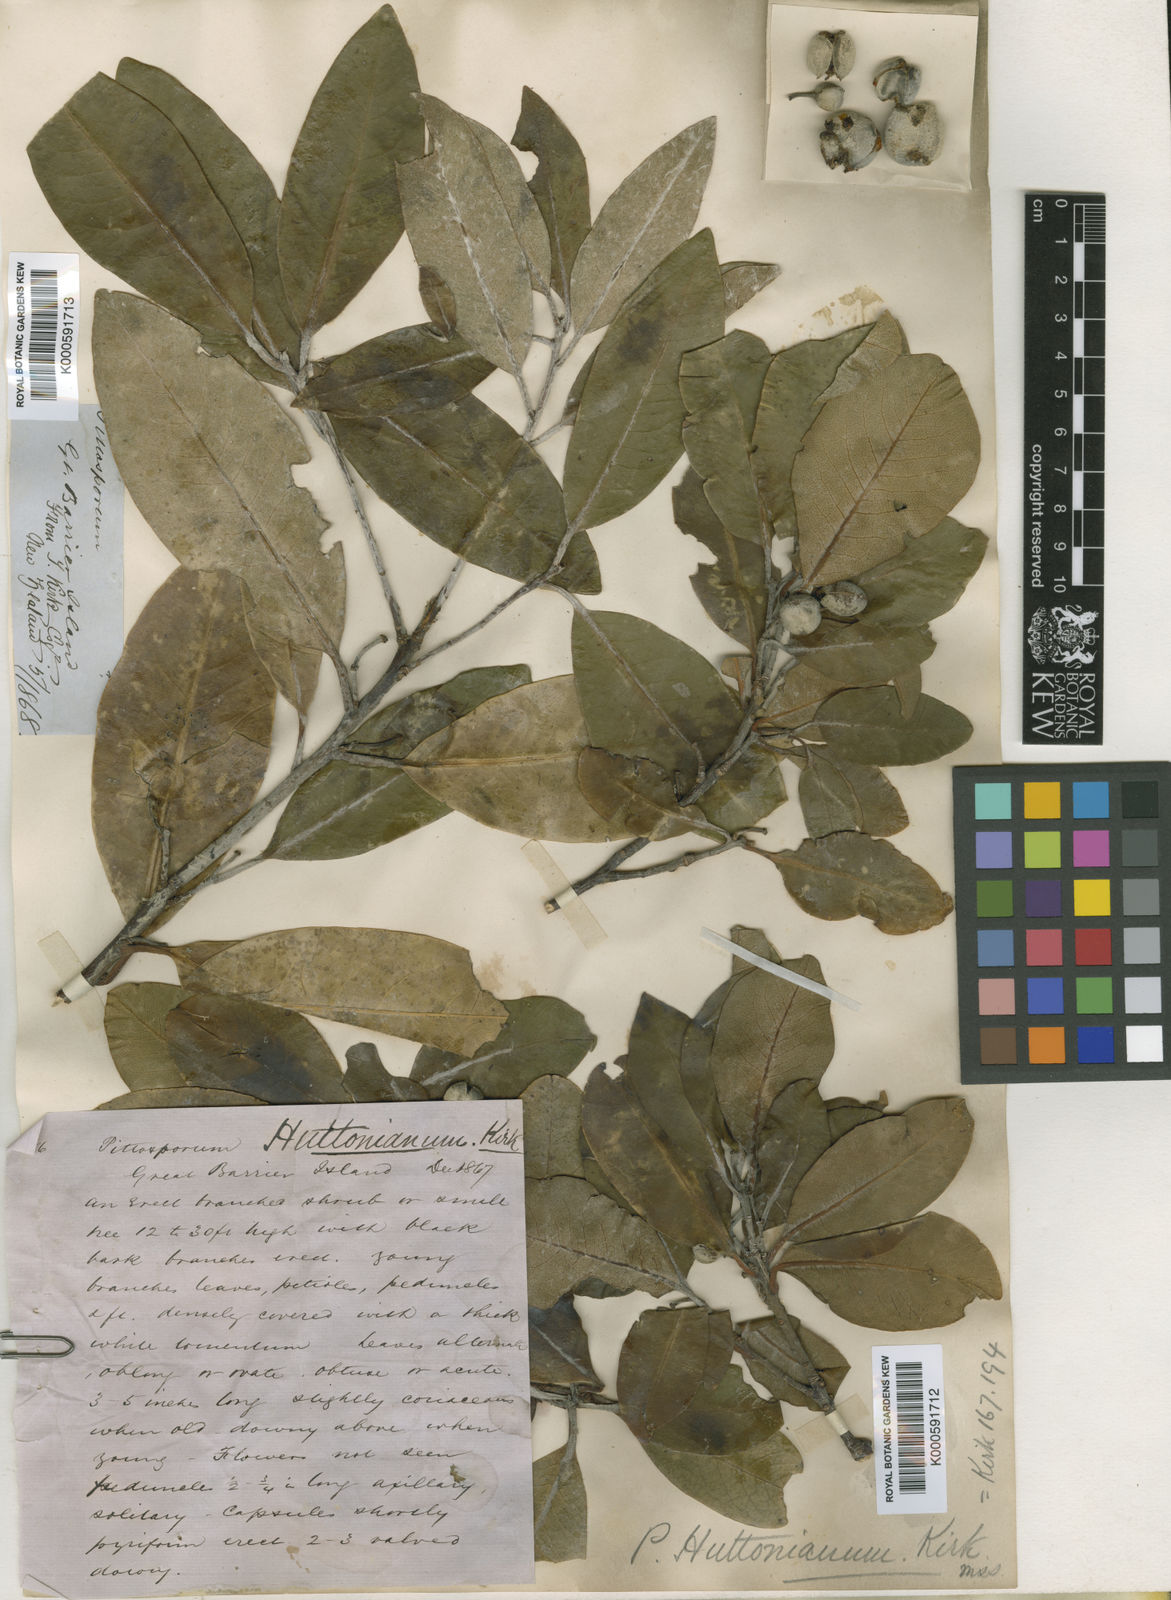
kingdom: Plantae
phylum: Tracheophyta
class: Magnoliopsida
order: Apiales
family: Pittosporaceae
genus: Pittosporum
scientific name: Pittosporum huttonianum
